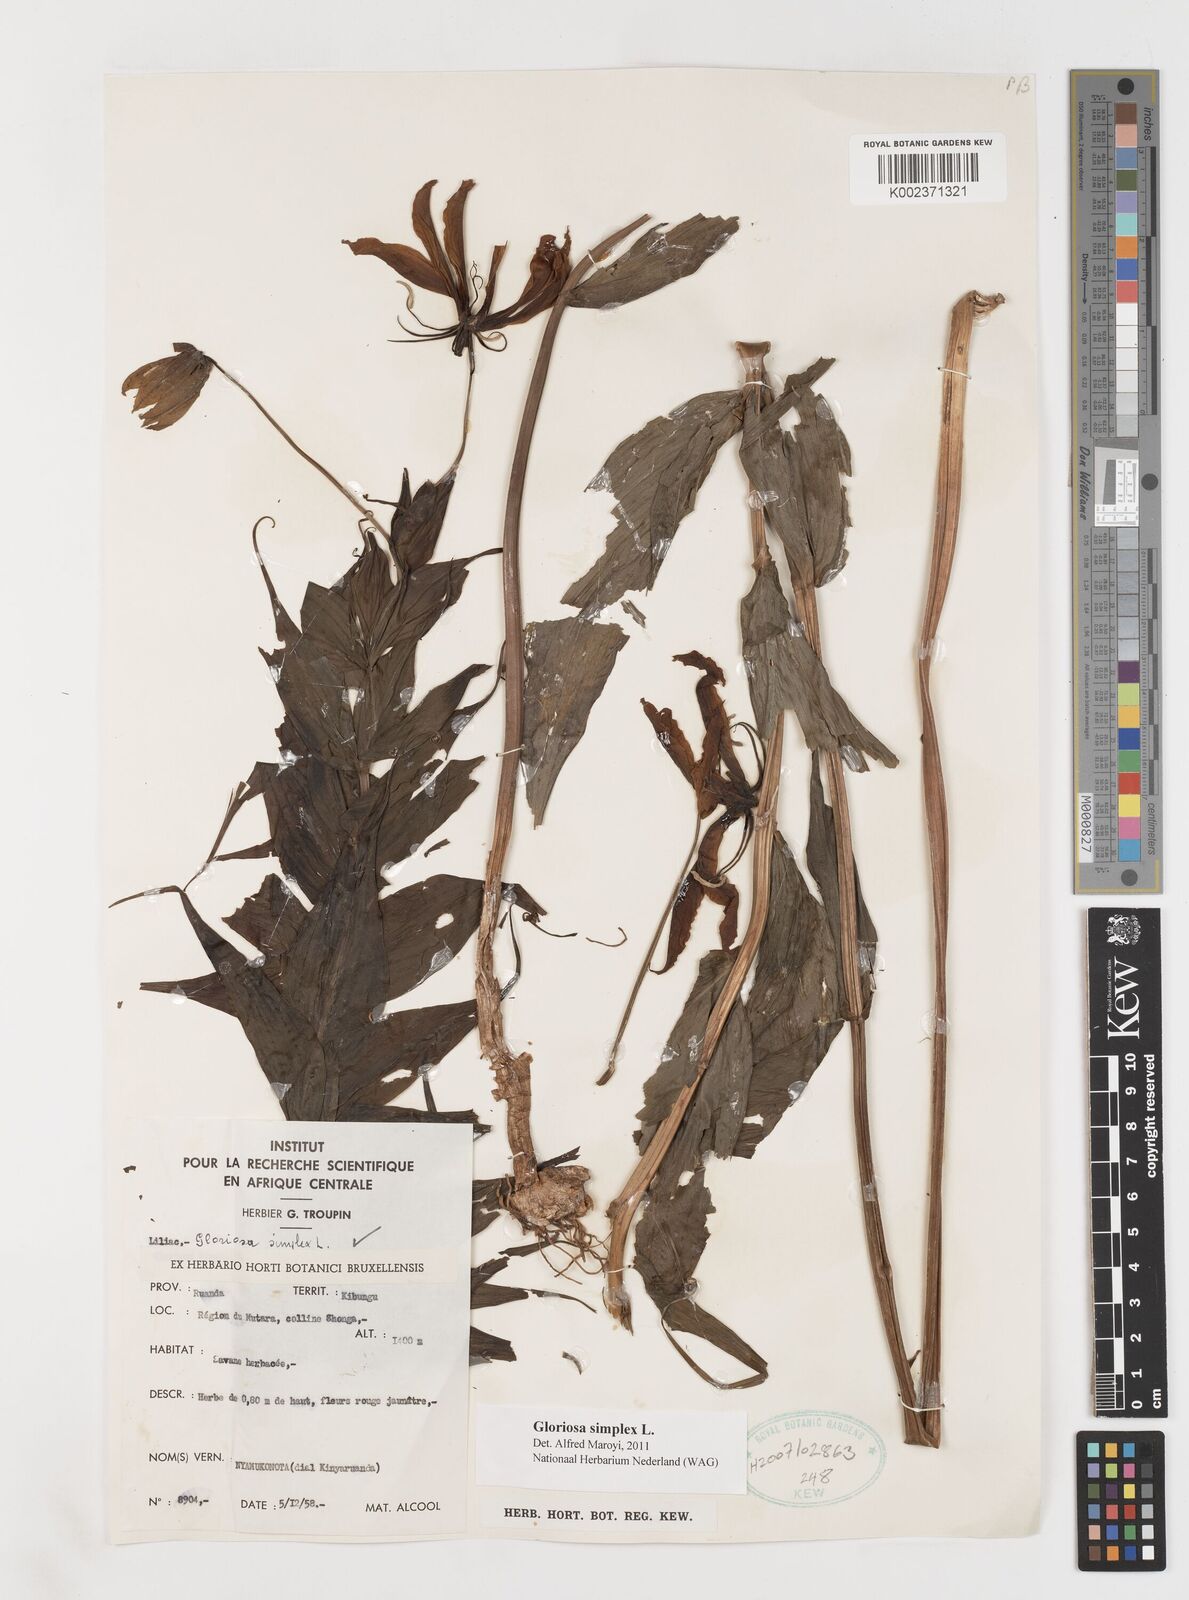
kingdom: Plantae
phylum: Tracheophyta
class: Liliopsida
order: Liliales
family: Colchicaceae
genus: Gloriosa
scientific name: Gloriosa simplex
